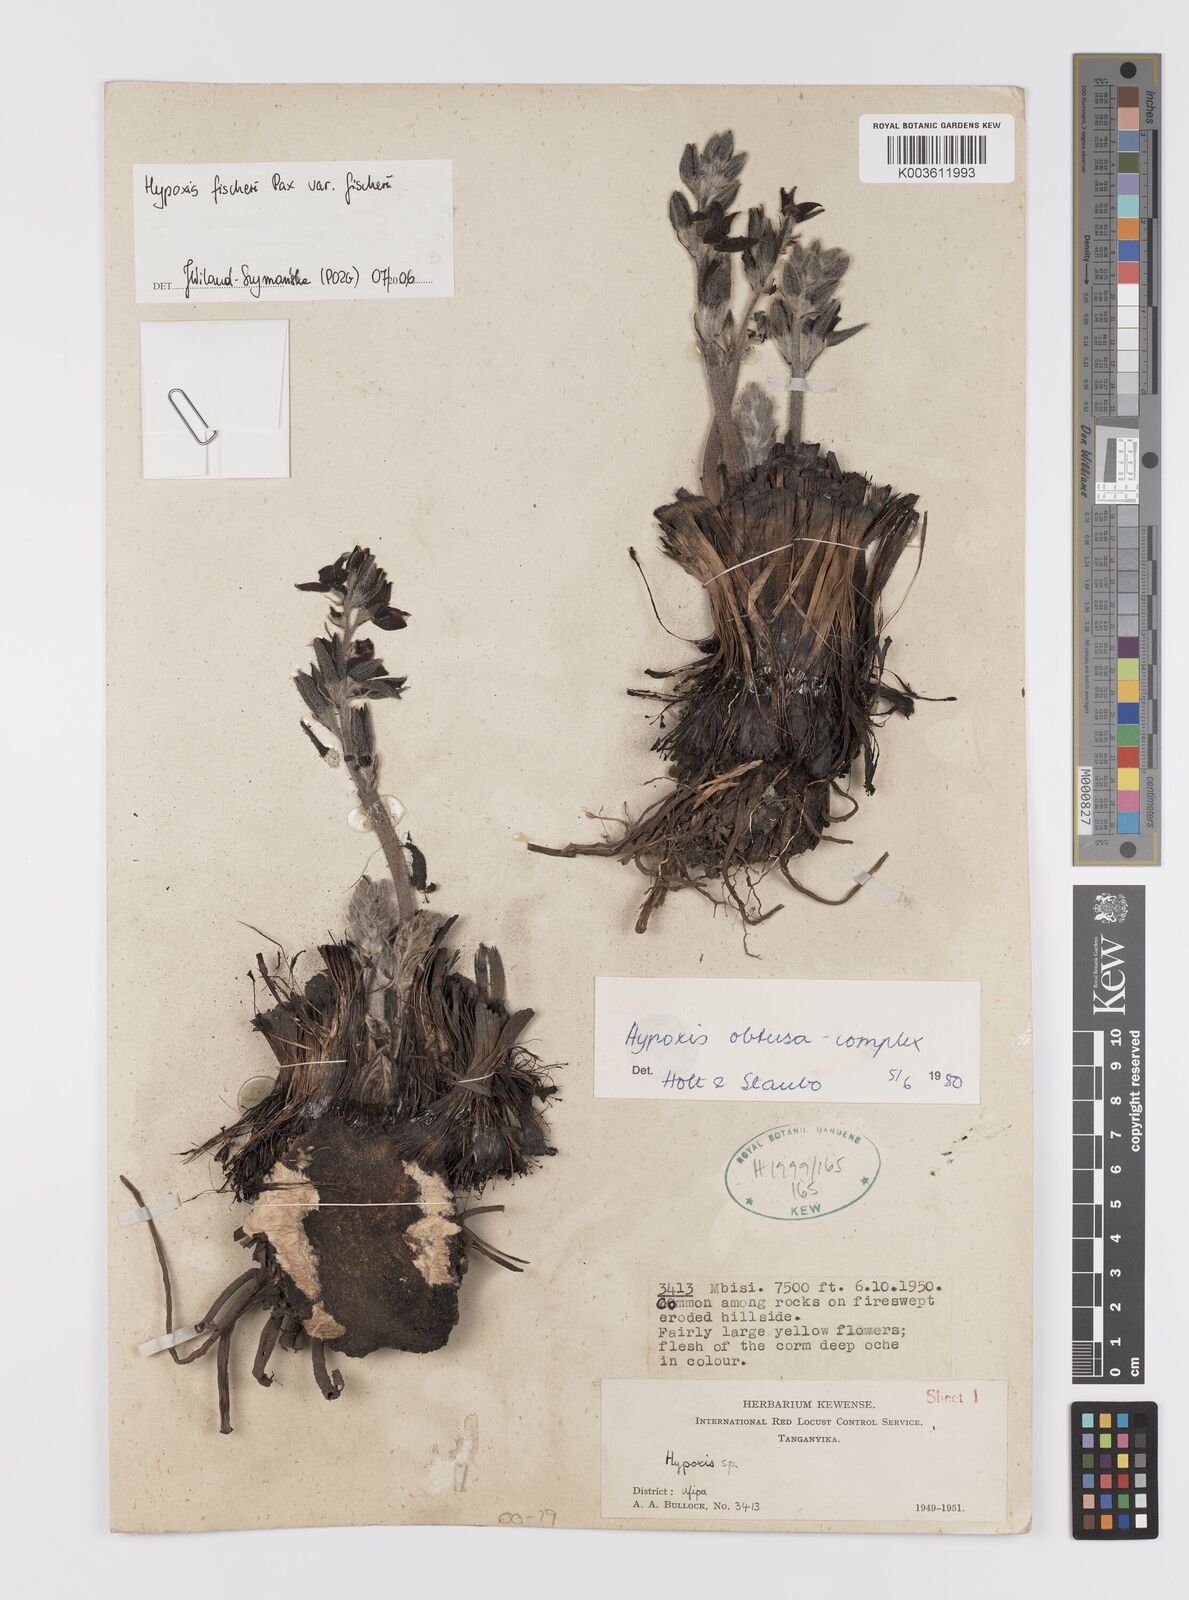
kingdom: Plantae
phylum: Tracheophyta
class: Liliopsida
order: Asparagales
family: Hypoxidaceae
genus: Hypoxis
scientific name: Hypoxis fischeri
